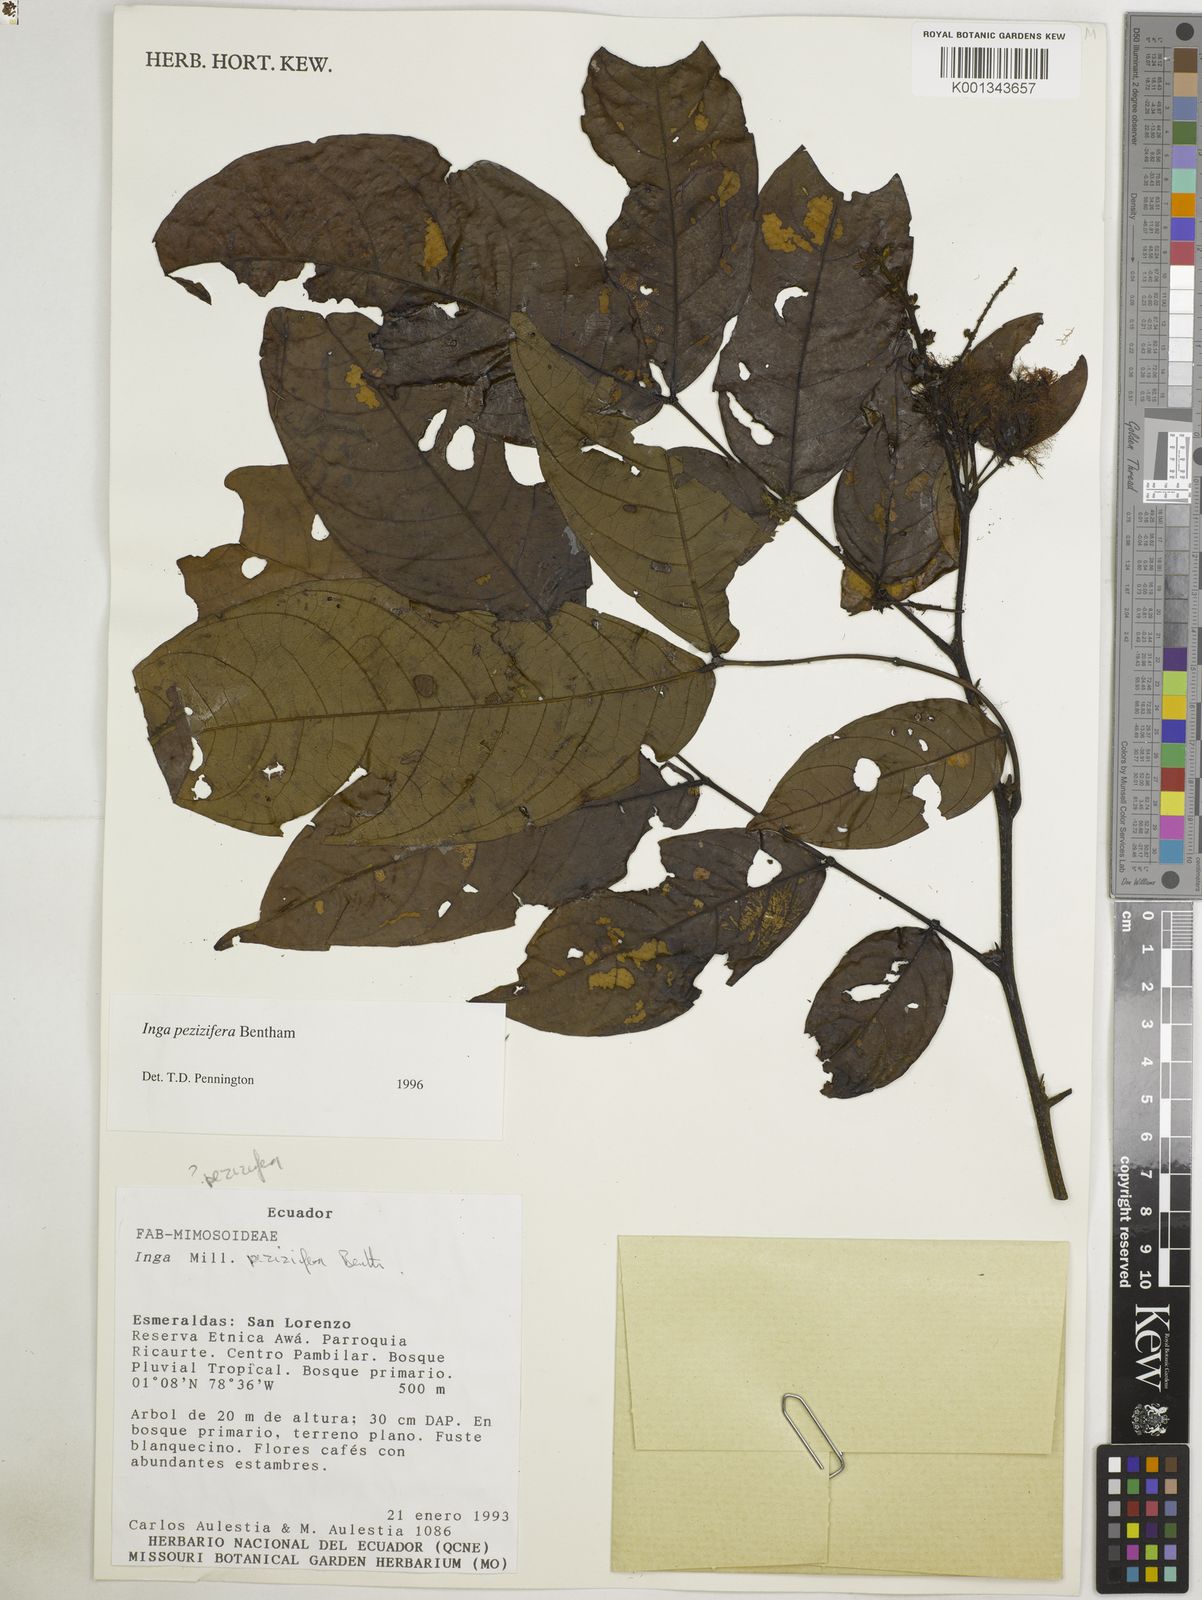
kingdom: Plantae
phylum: Tracheophyta
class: Magnoliopsida
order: Fabales
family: Fabaceae
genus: Inga
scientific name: Inga pezizifera
